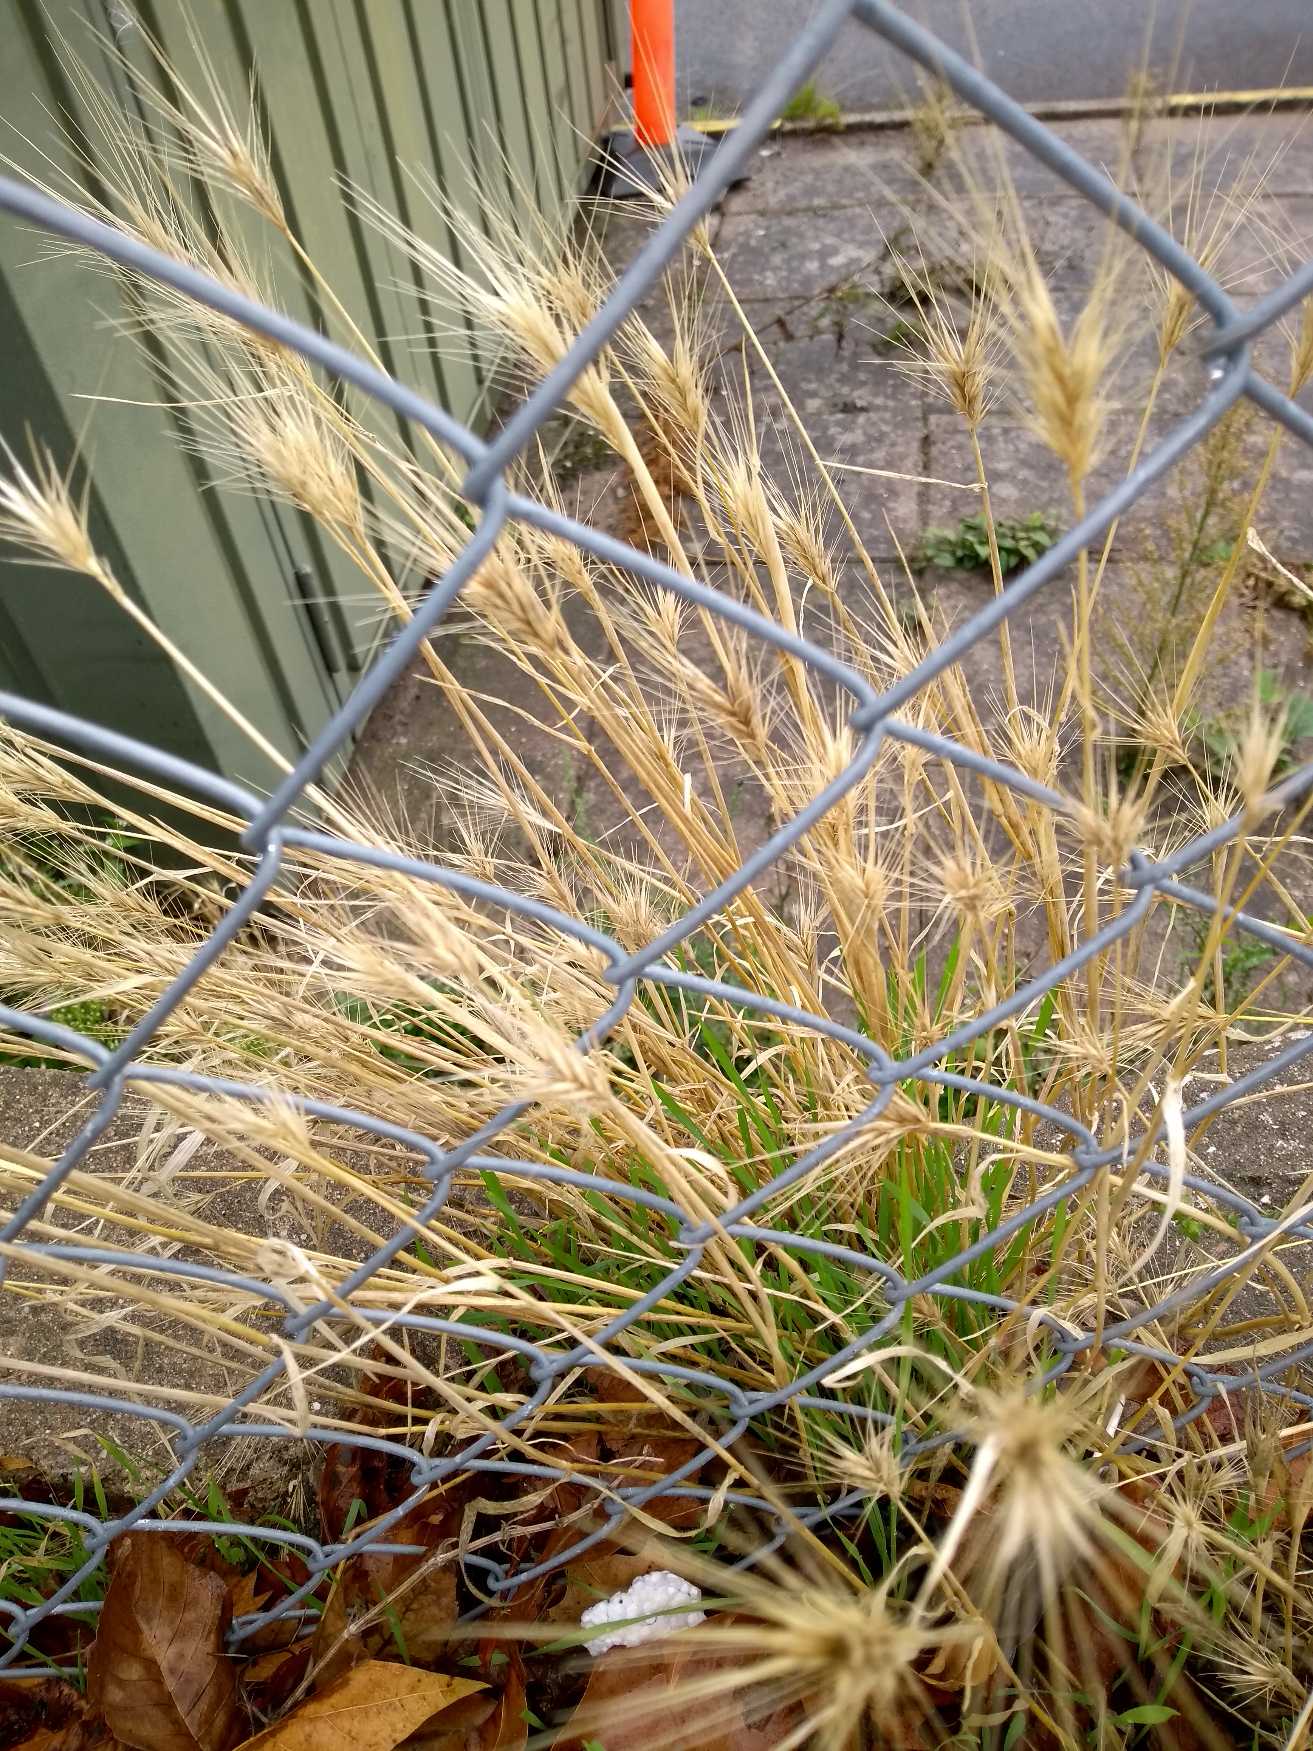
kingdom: Plantae
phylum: Tracheophyta
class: Liliopsida
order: Poales
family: Poaceae
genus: Hordeum
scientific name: Hordeum
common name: Byg (Hordeum-slægten)
